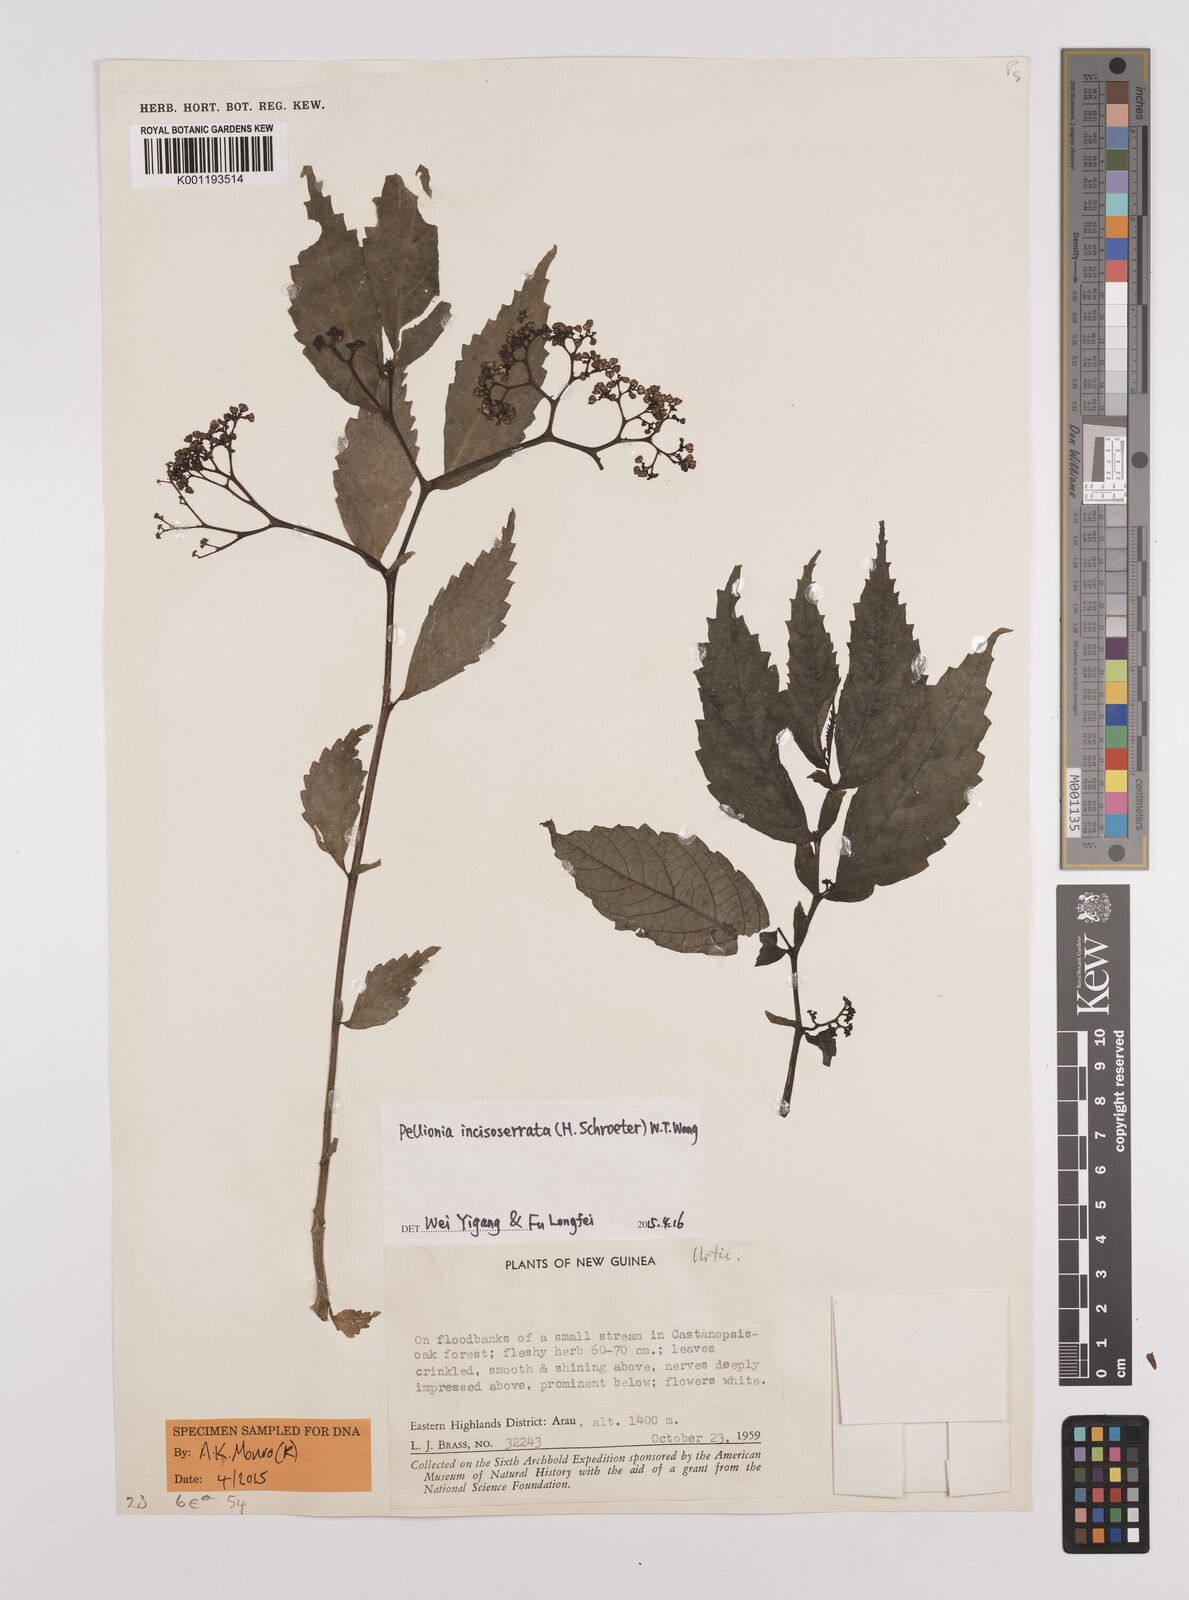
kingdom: Plantae
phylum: Tracheophyta
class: Magnoliopsida
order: Rosales
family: Urticaceae
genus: Elatostema
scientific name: Elatostema incisoserratum
